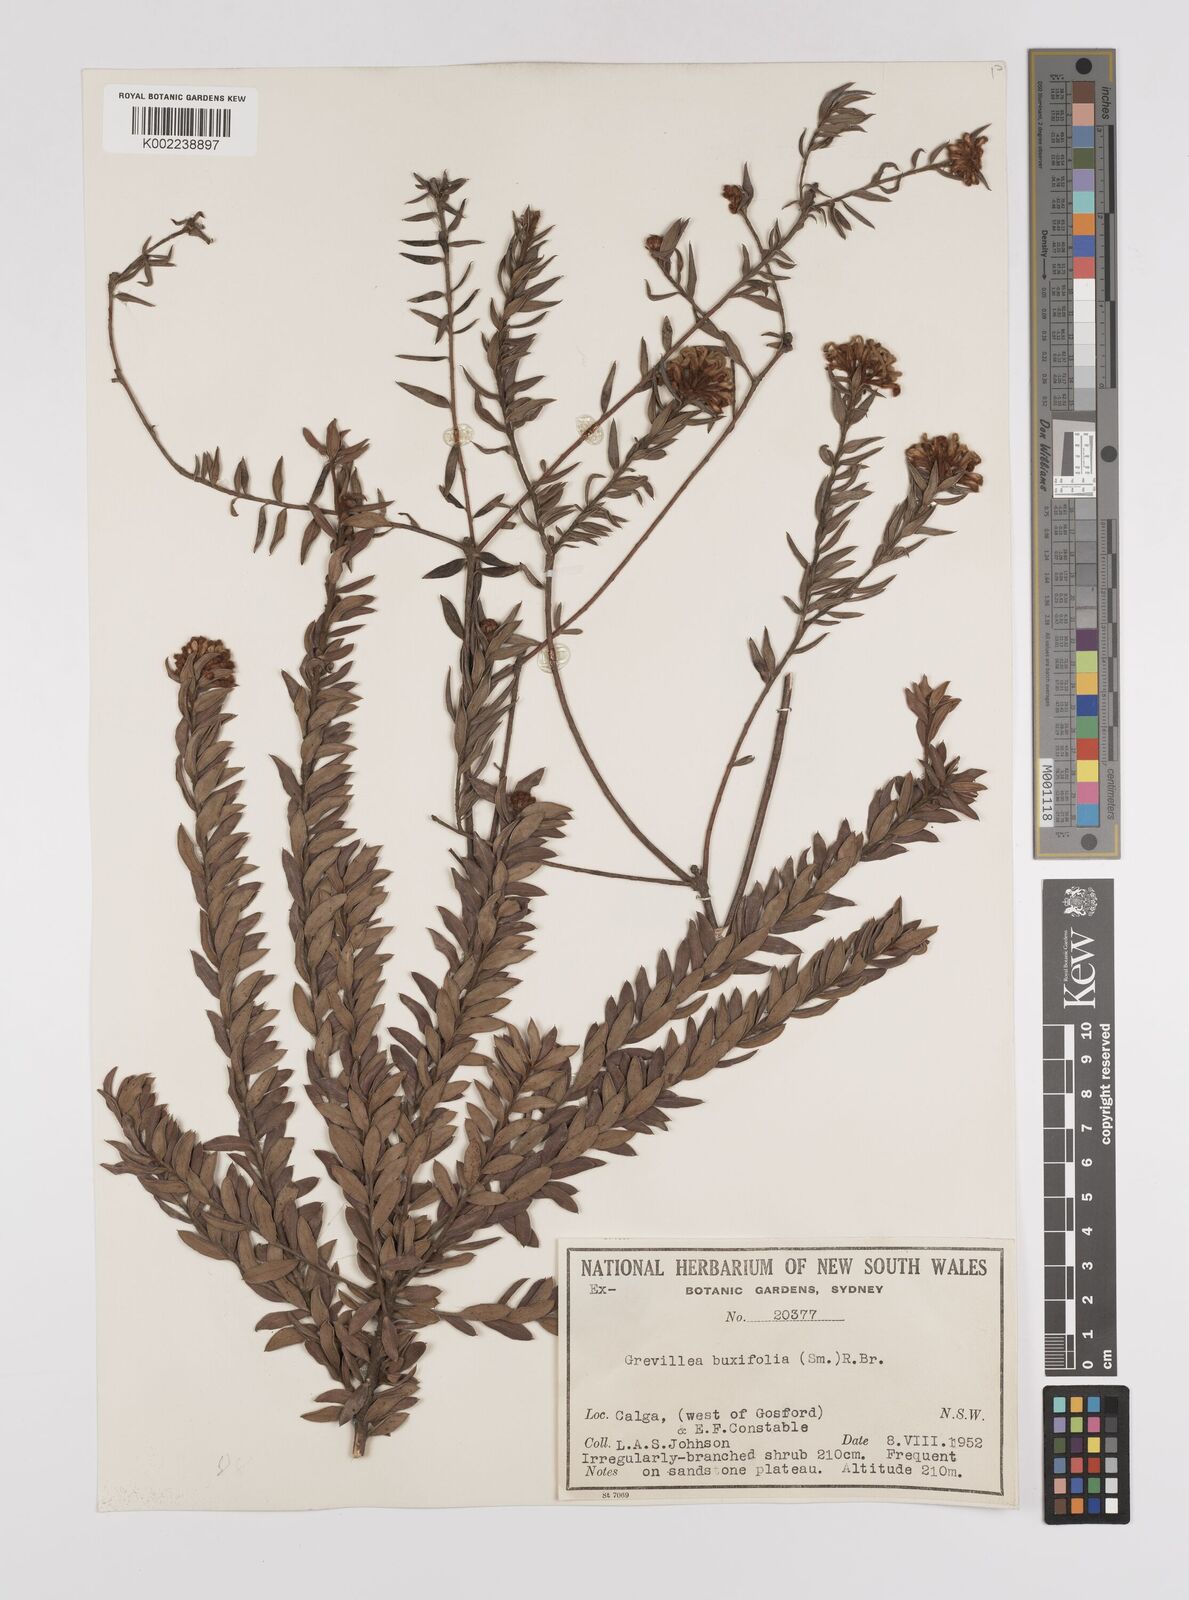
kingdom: Plantae
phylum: Tracheophyta
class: Magnoliopsida
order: Proteales
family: Proteaceae
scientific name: Proteaceae
